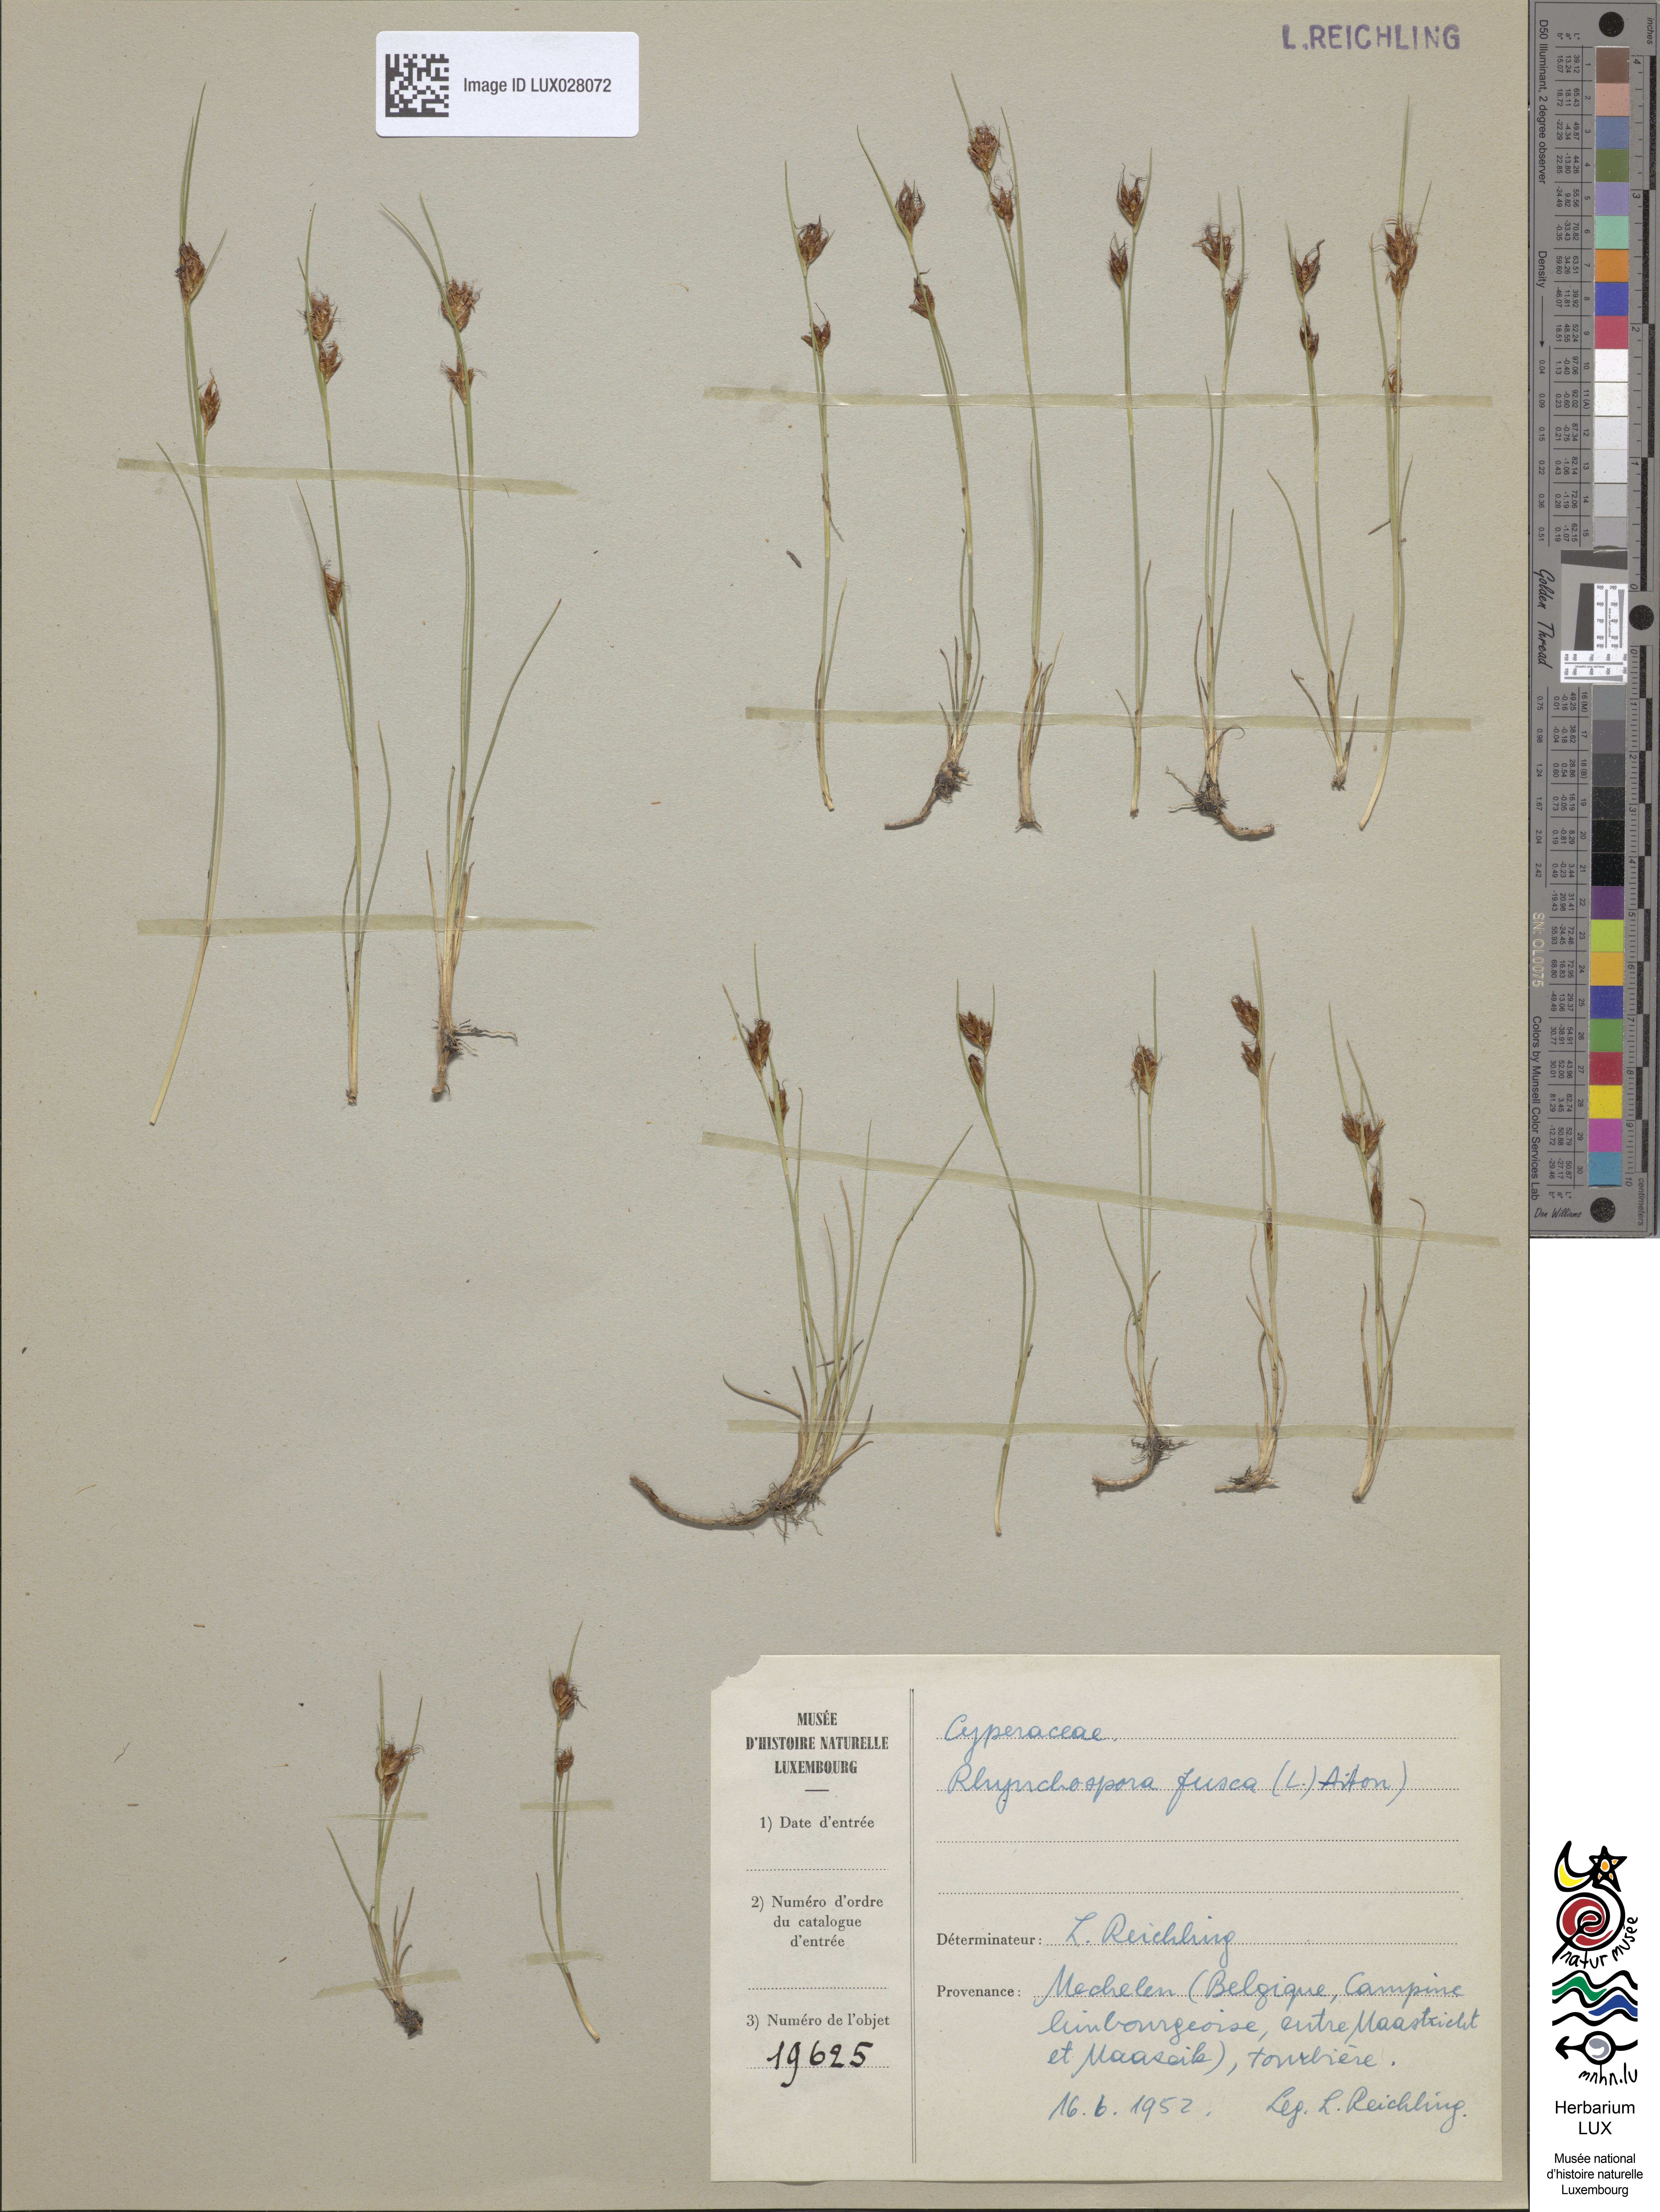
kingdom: Plantae
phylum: Tracheophyta
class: Liliopsida
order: Poales
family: Cyperaceae
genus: Rhynchospora
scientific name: Rhynchospora fusca
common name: Brown beak-sedge
